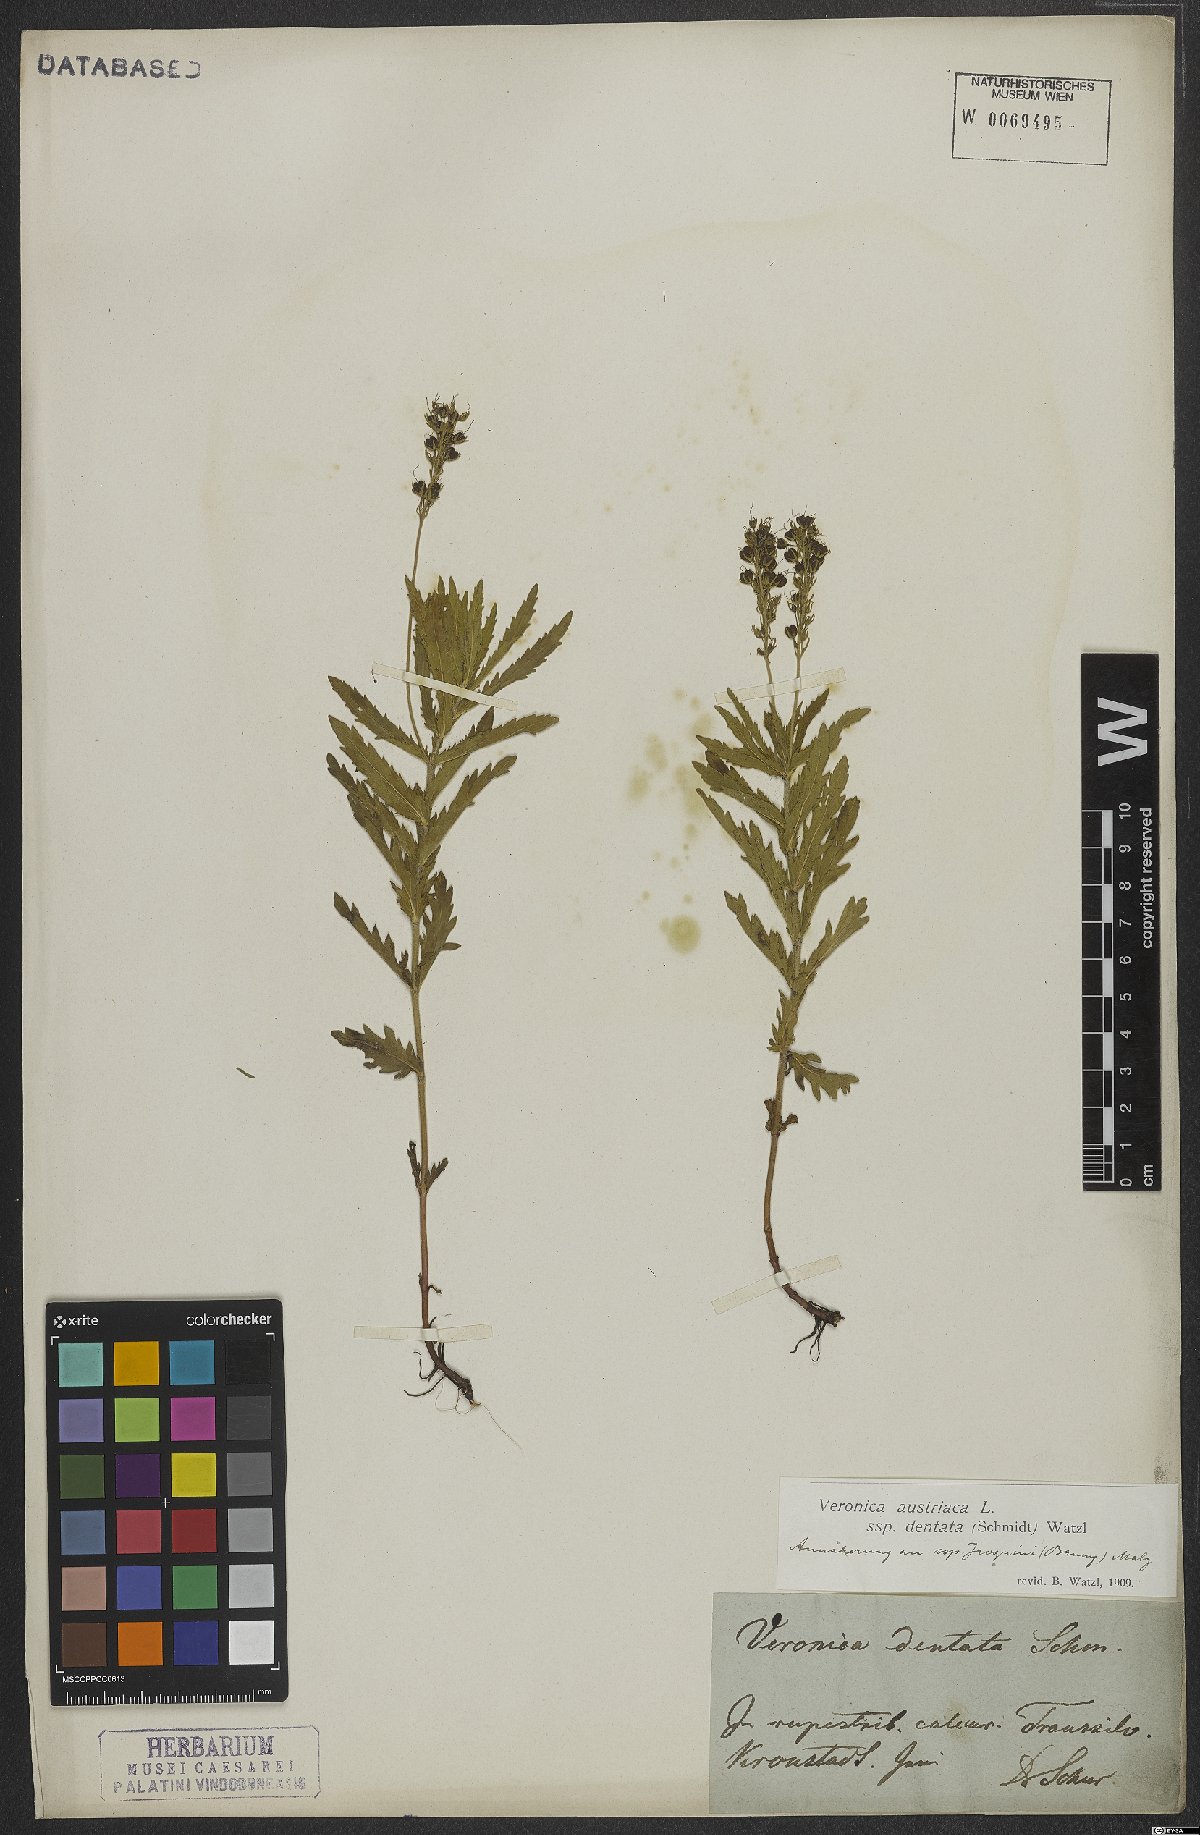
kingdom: Plantae
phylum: Tracheophyta
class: Magnoliopsida
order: Lamiales
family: Plantaginaceae
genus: Veronica
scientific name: Veronica austriaca
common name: Large speedwell
